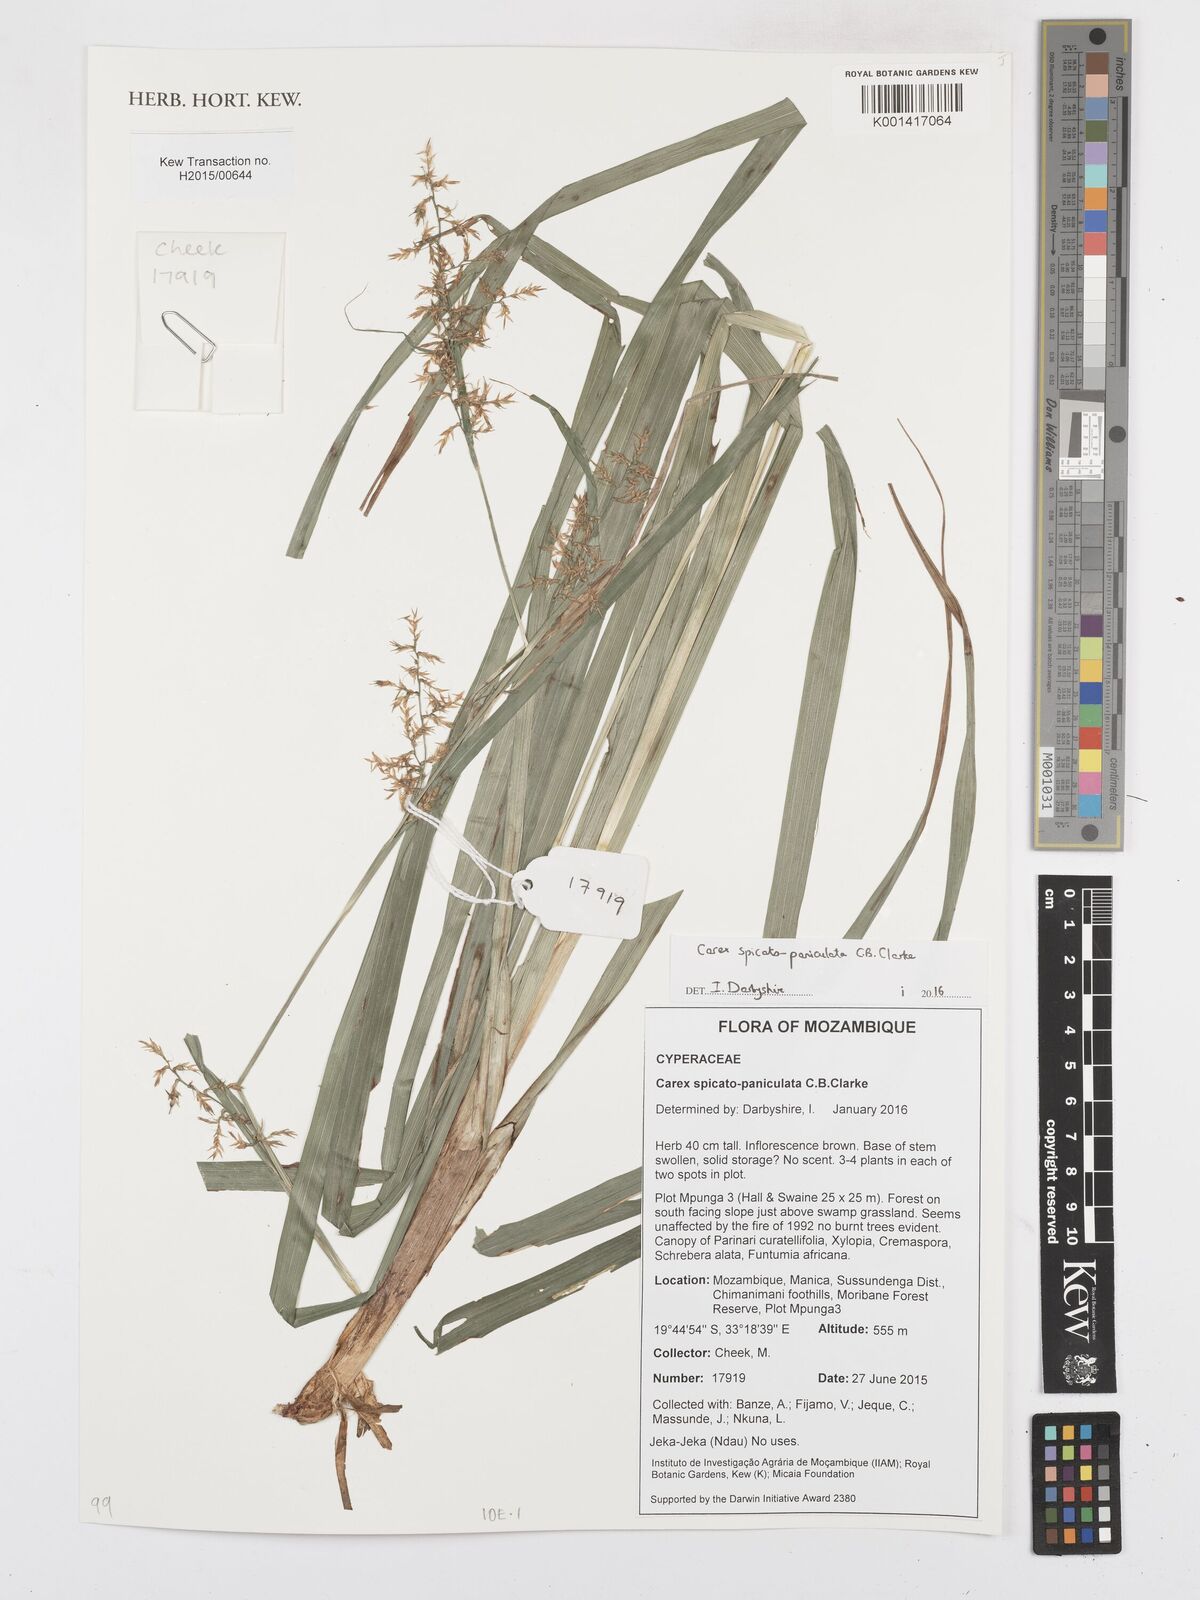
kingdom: Plantae
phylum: Tracheophyta
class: Liliopsida
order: Poales
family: Cyperaceae
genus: Carex
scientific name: Carex spicatopaniculata
